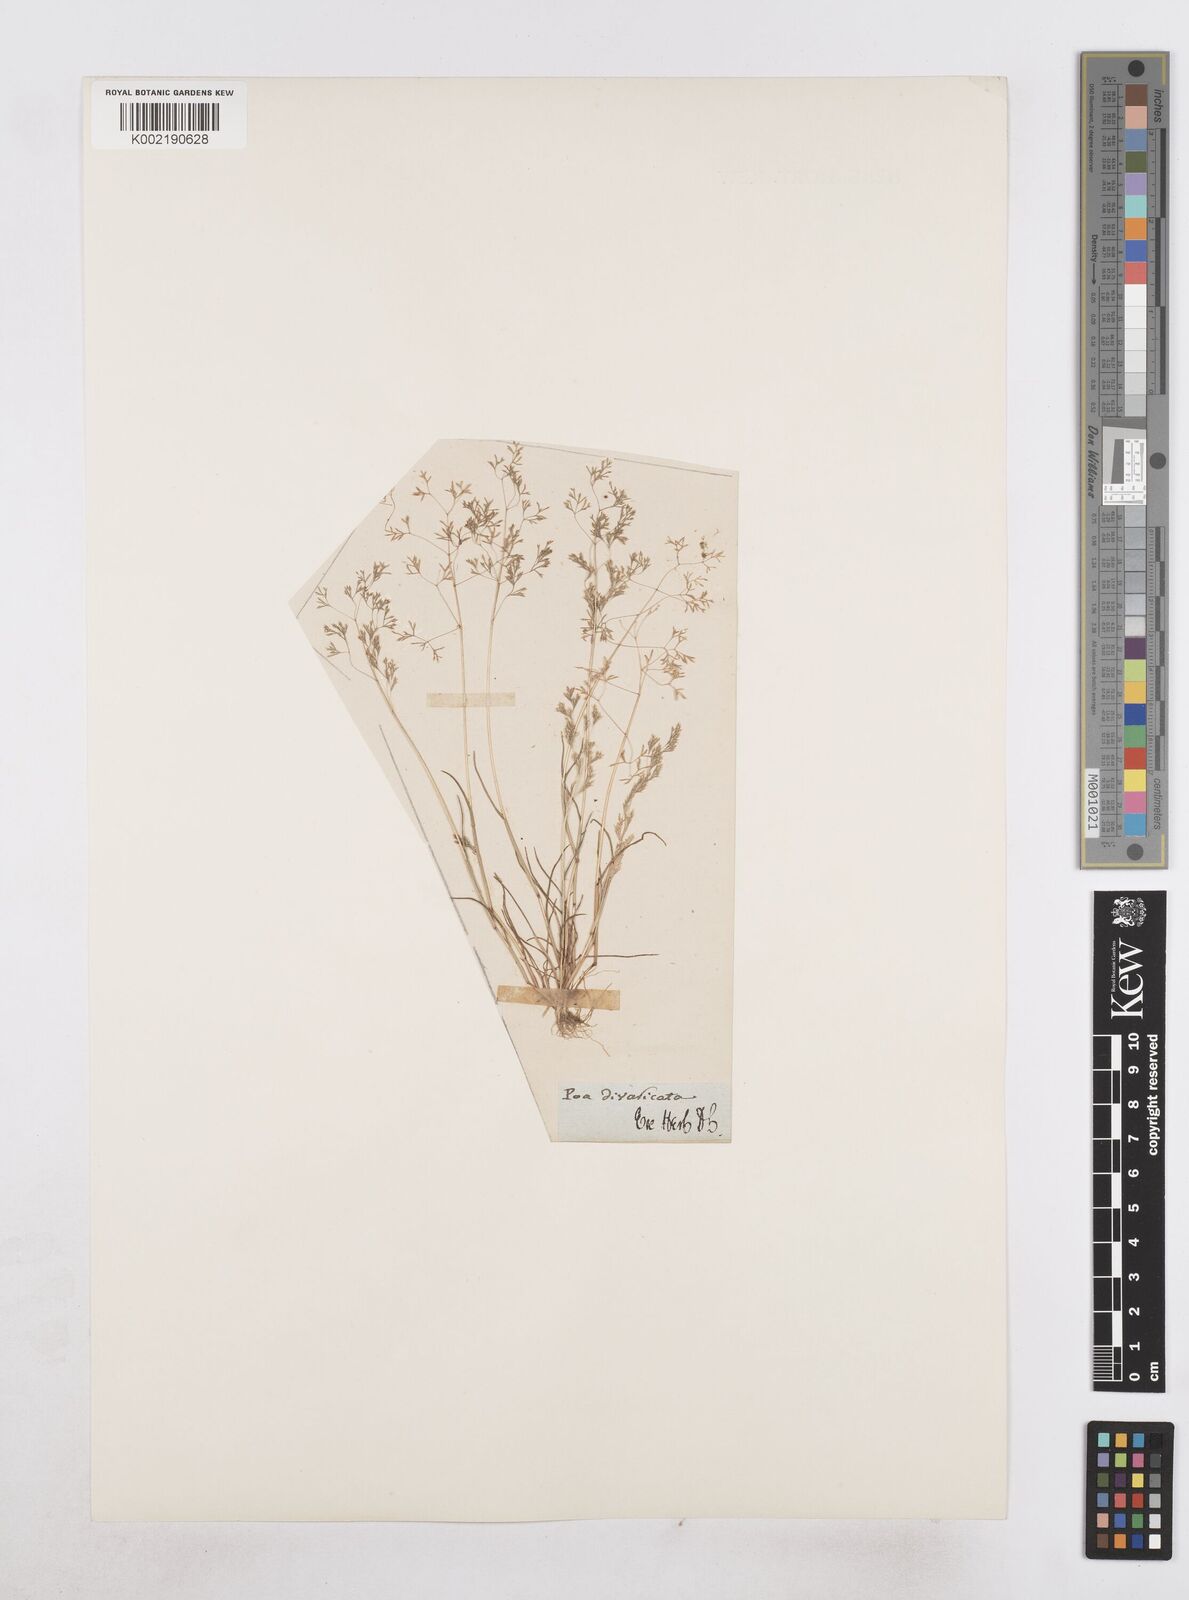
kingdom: Plantae
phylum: Tracheophyta
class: Liliopsida
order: Poales
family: Poaceae
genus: Sphenopus
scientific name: Sphenopus divaricatus
